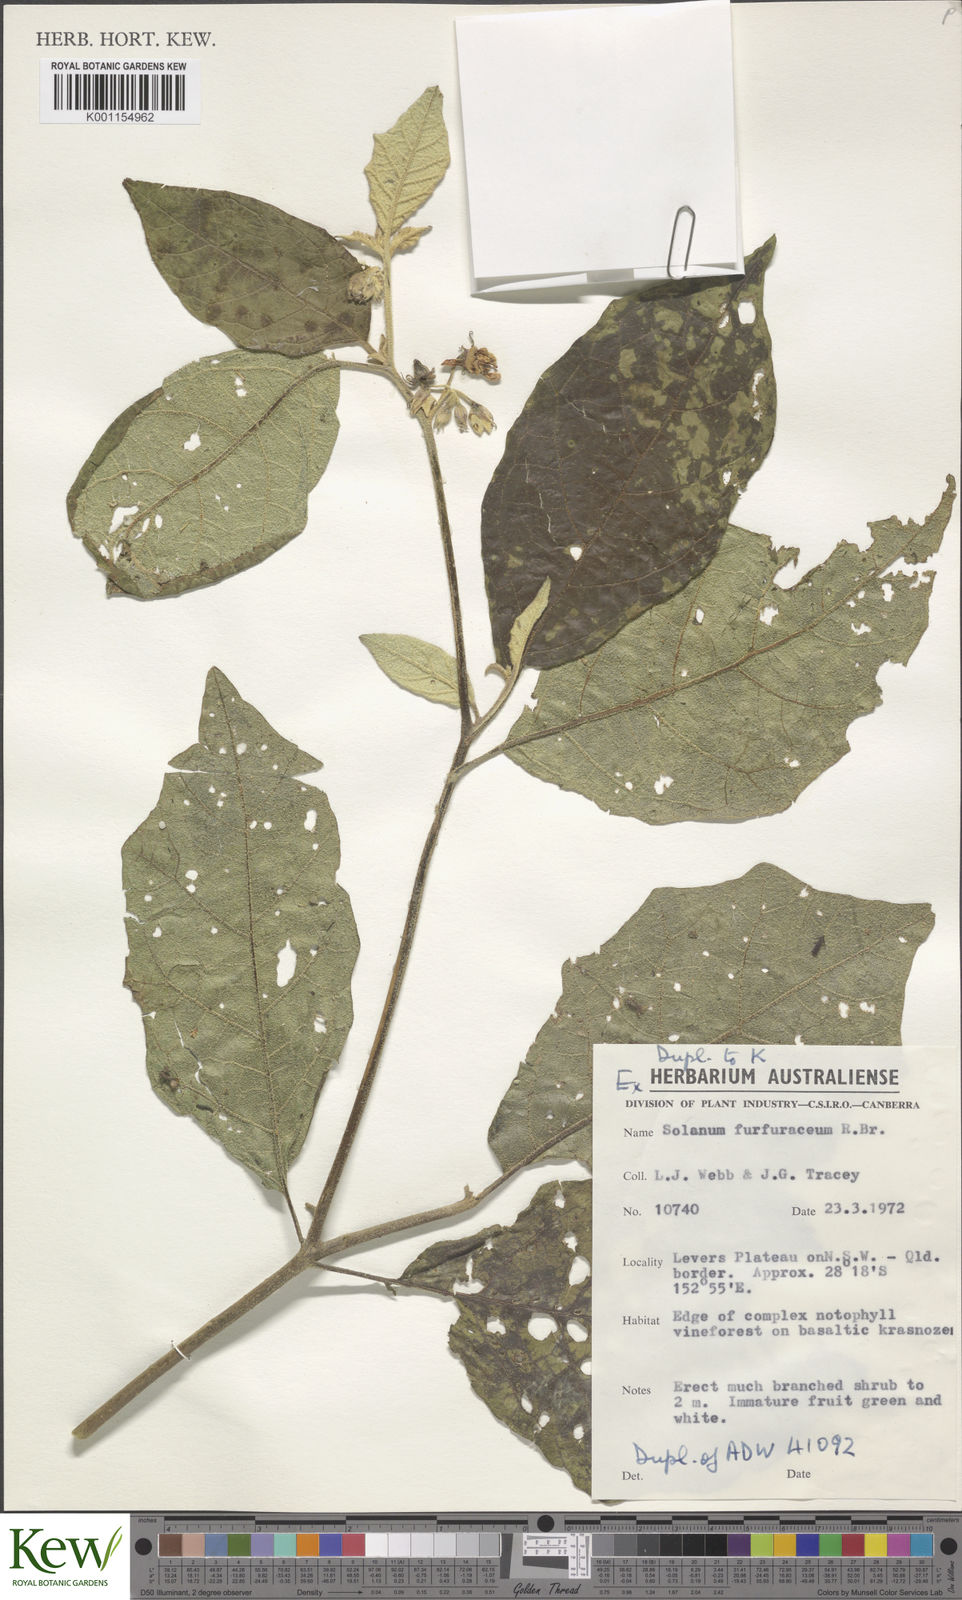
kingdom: Plantae
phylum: Tracheophyta
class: Magnoliopsida
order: Solanales
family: Solanaceae
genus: Solanum
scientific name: Solanum furfuraceum
